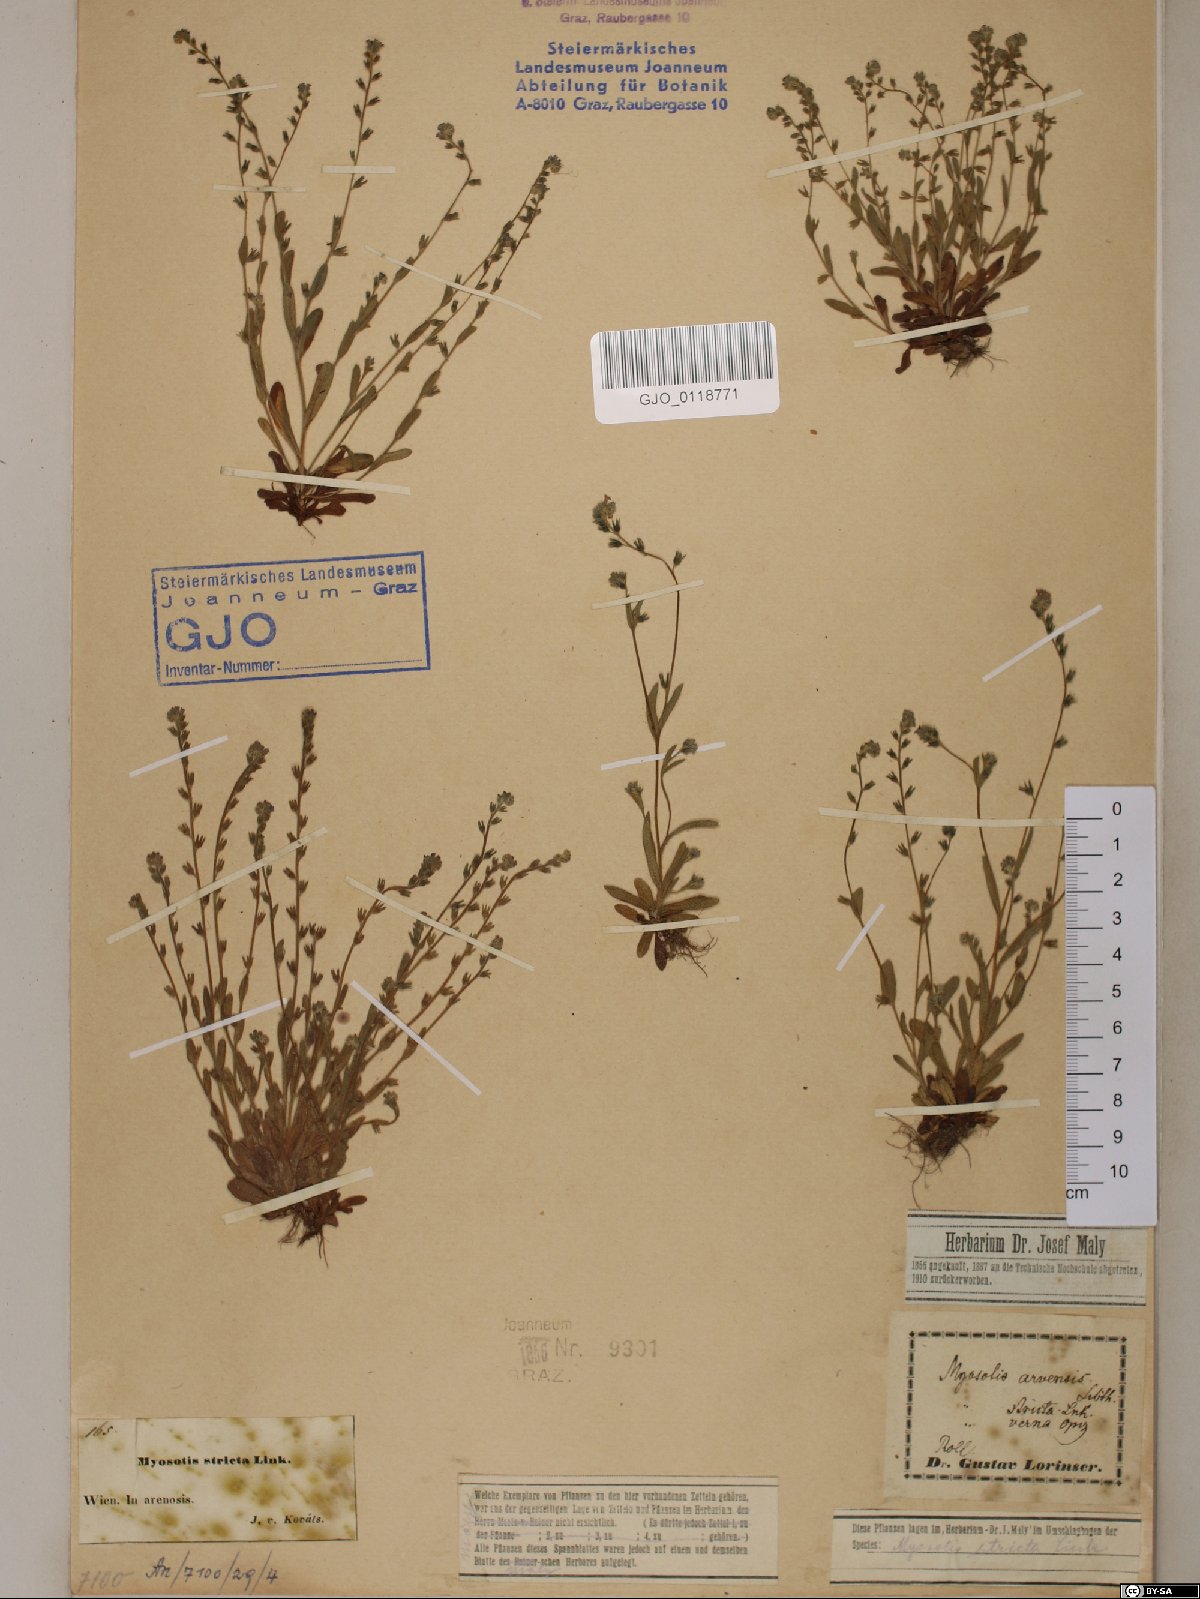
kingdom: Plantae
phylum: Tracheophyta
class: Magnoliopsida
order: Boraginales
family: Boraginaceae
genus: Myosotis
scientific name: Myosotis stricta
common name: Strict forget-me-not
